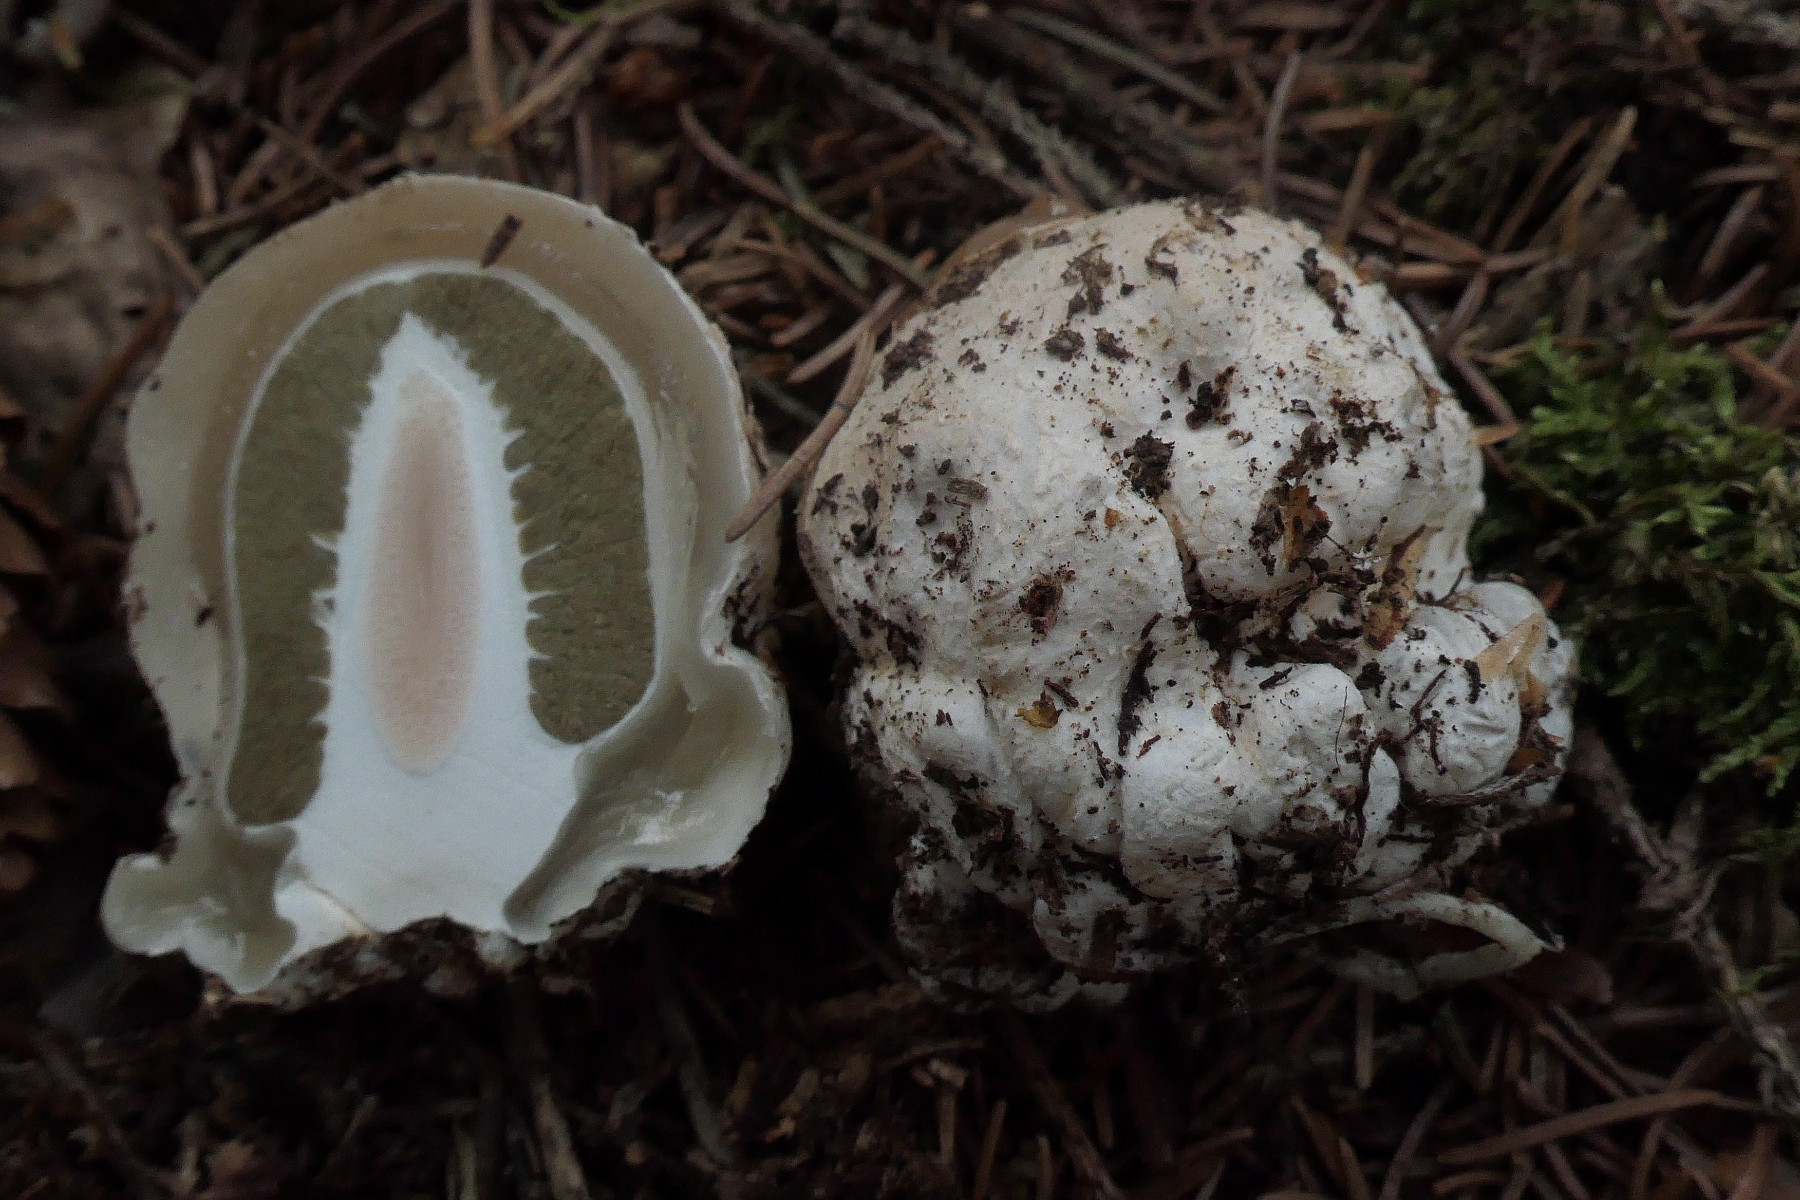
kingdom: Fungi
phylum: Basidiomycota
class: Agaricomycetes
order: Phallales
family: Phallaceae
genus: Phallus
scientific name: Phallus impudicus
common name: almindelig stinksvamp
